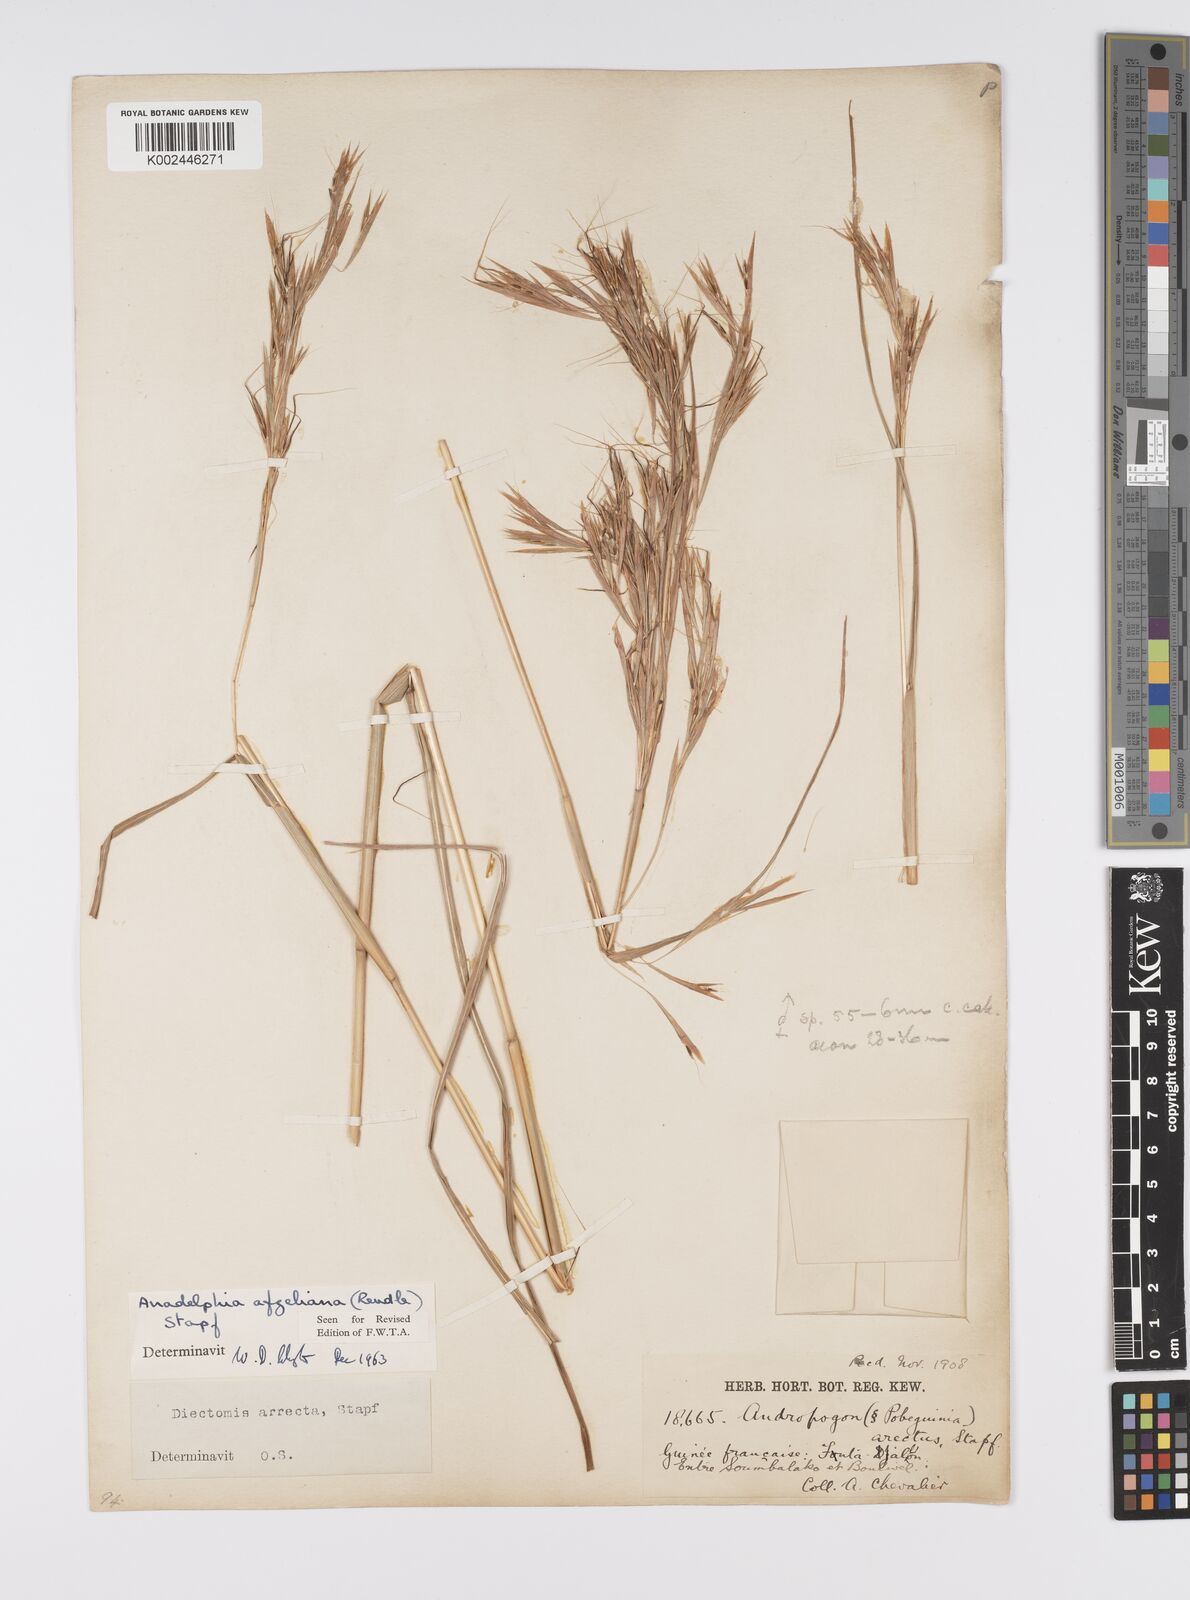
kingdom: Plantae
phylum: Tracheophyta
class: Liliopsida
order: Poales
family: Poaceae
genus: Anadelphia
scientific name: Anadelphia afzeliana
